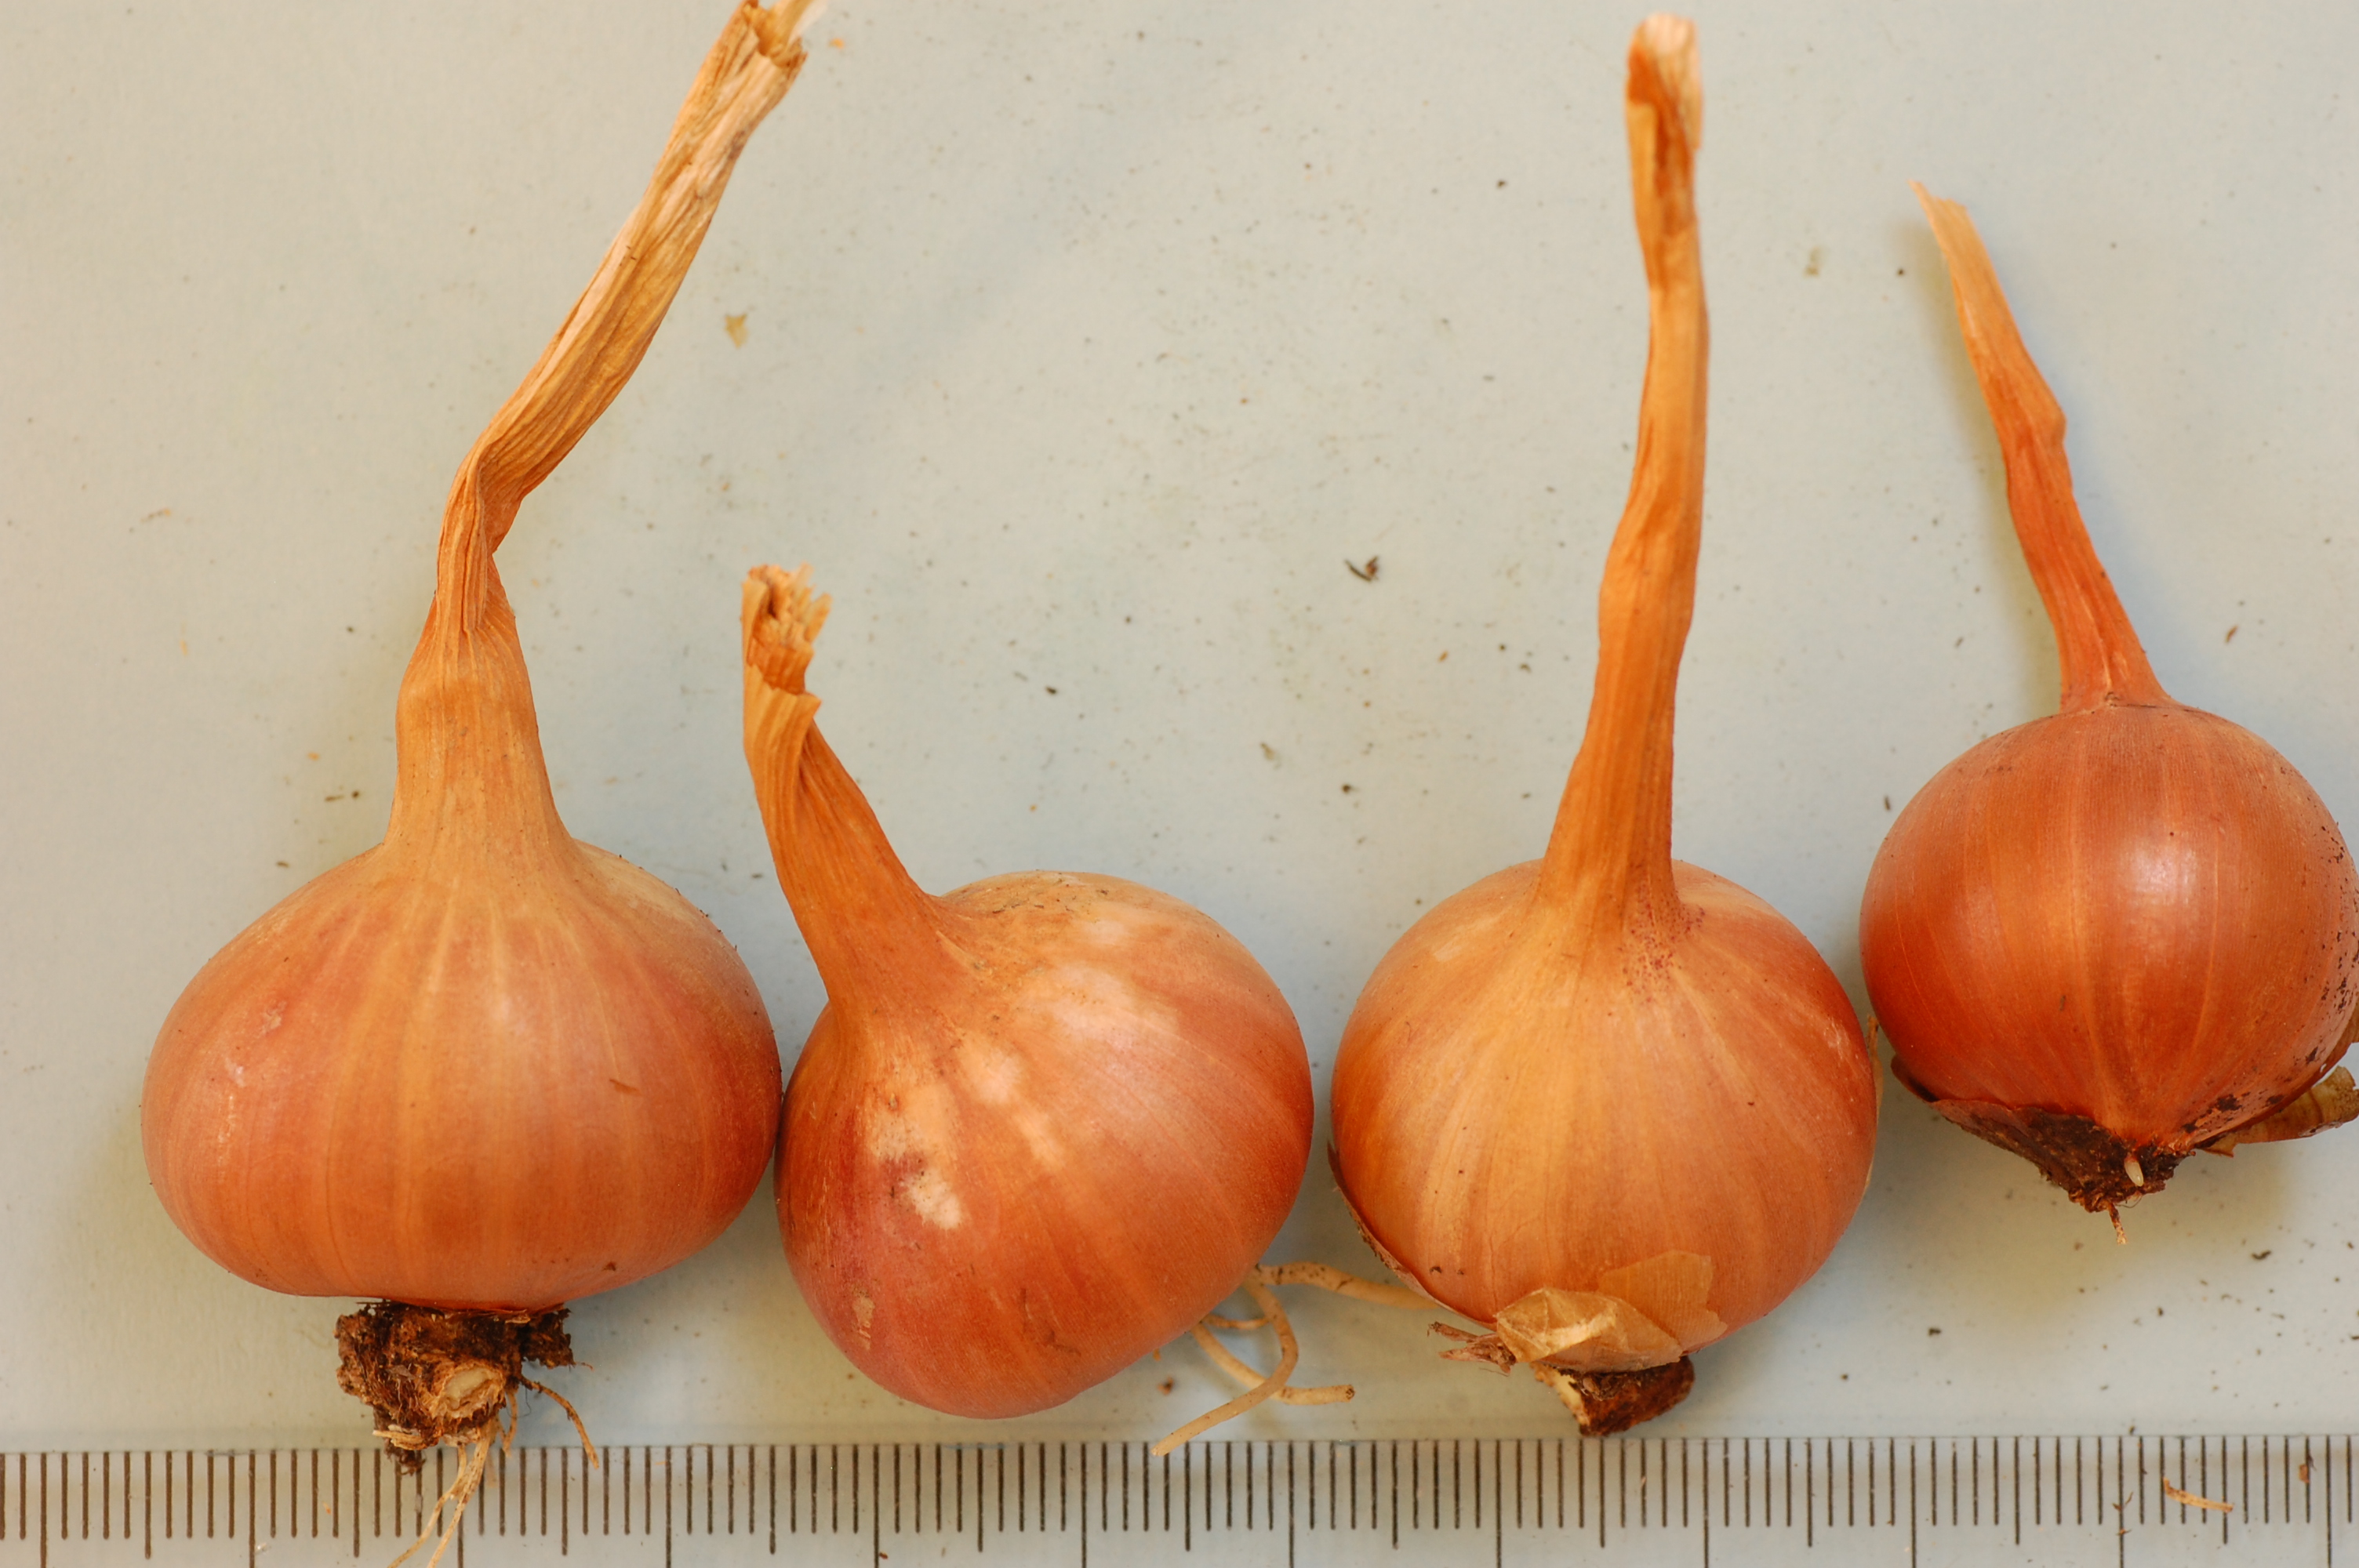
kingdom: Plantae
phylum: Tracheophyta
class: Liliopsida
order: Asparagales
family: Amaryllidaceae
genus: Allium
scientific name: Allium cepa
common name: Onion
